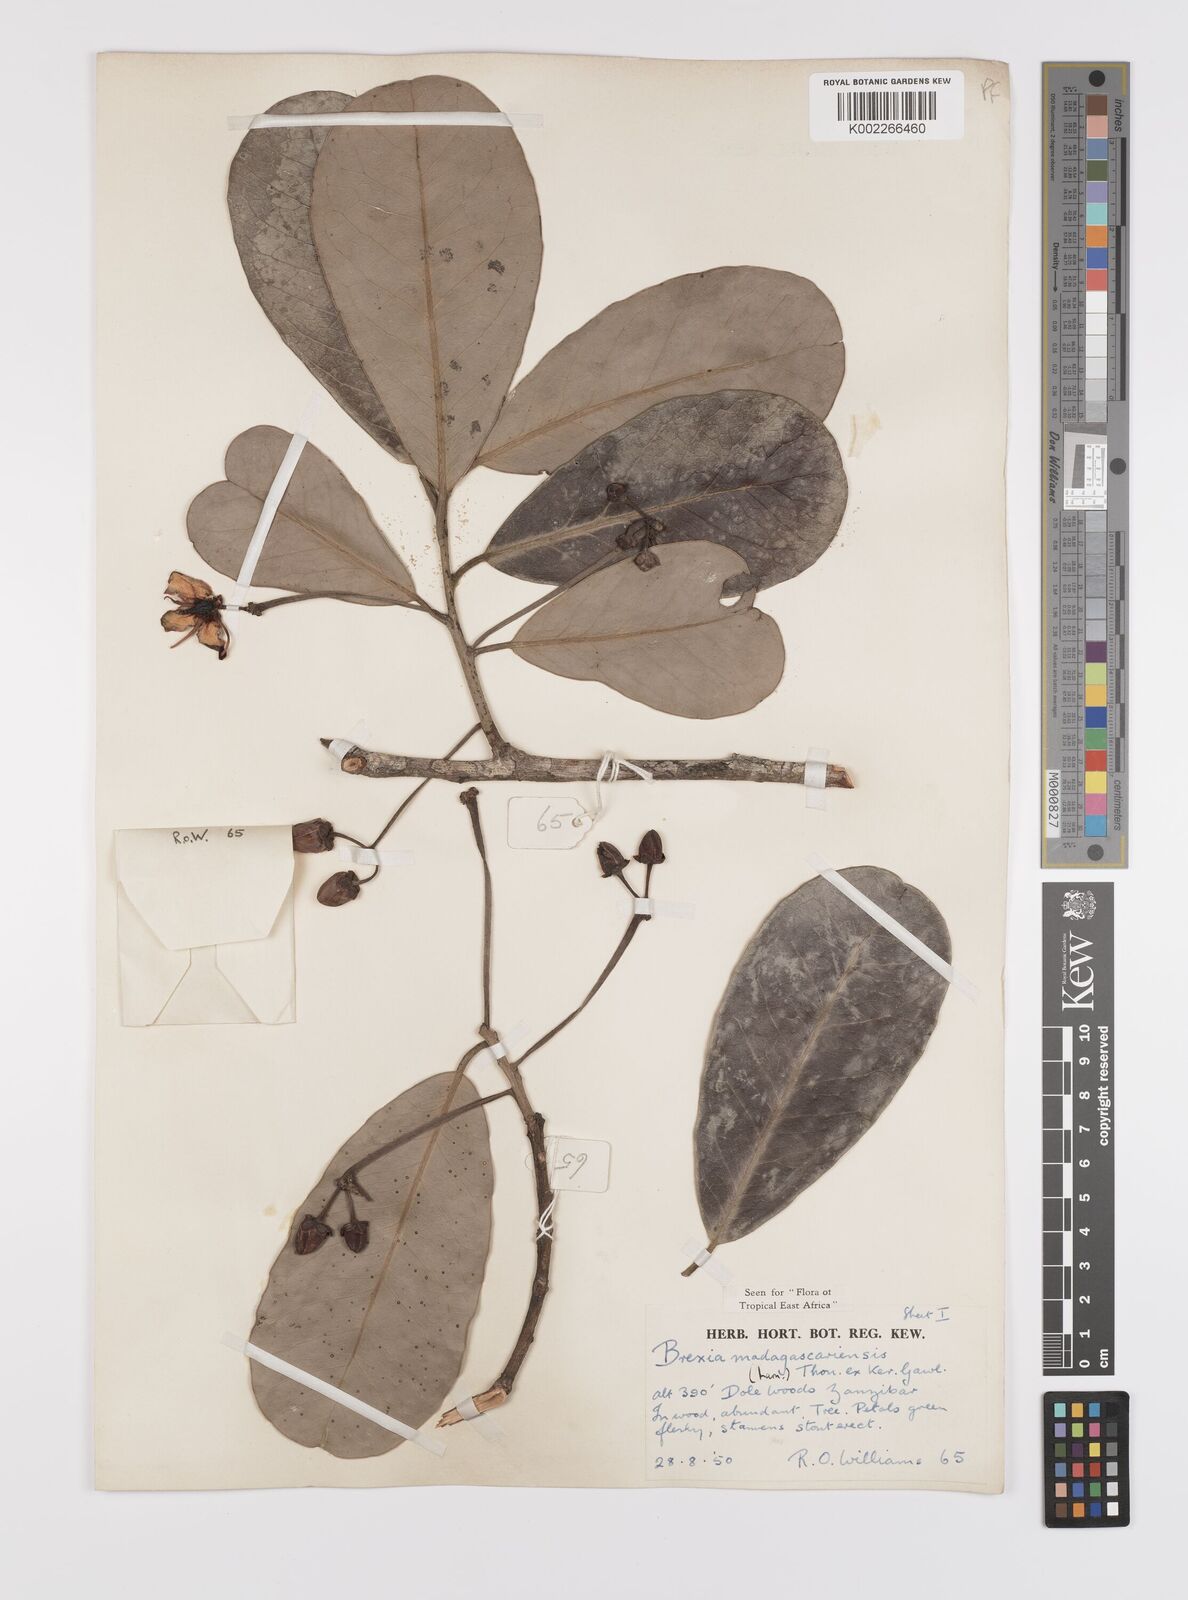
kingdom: Plantae
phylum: Tracheophyta
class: Magnoliopsida
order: Celastrales
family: Celastraceae
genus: Brexia
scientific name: Brexia madagascariensis
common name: Brexia
